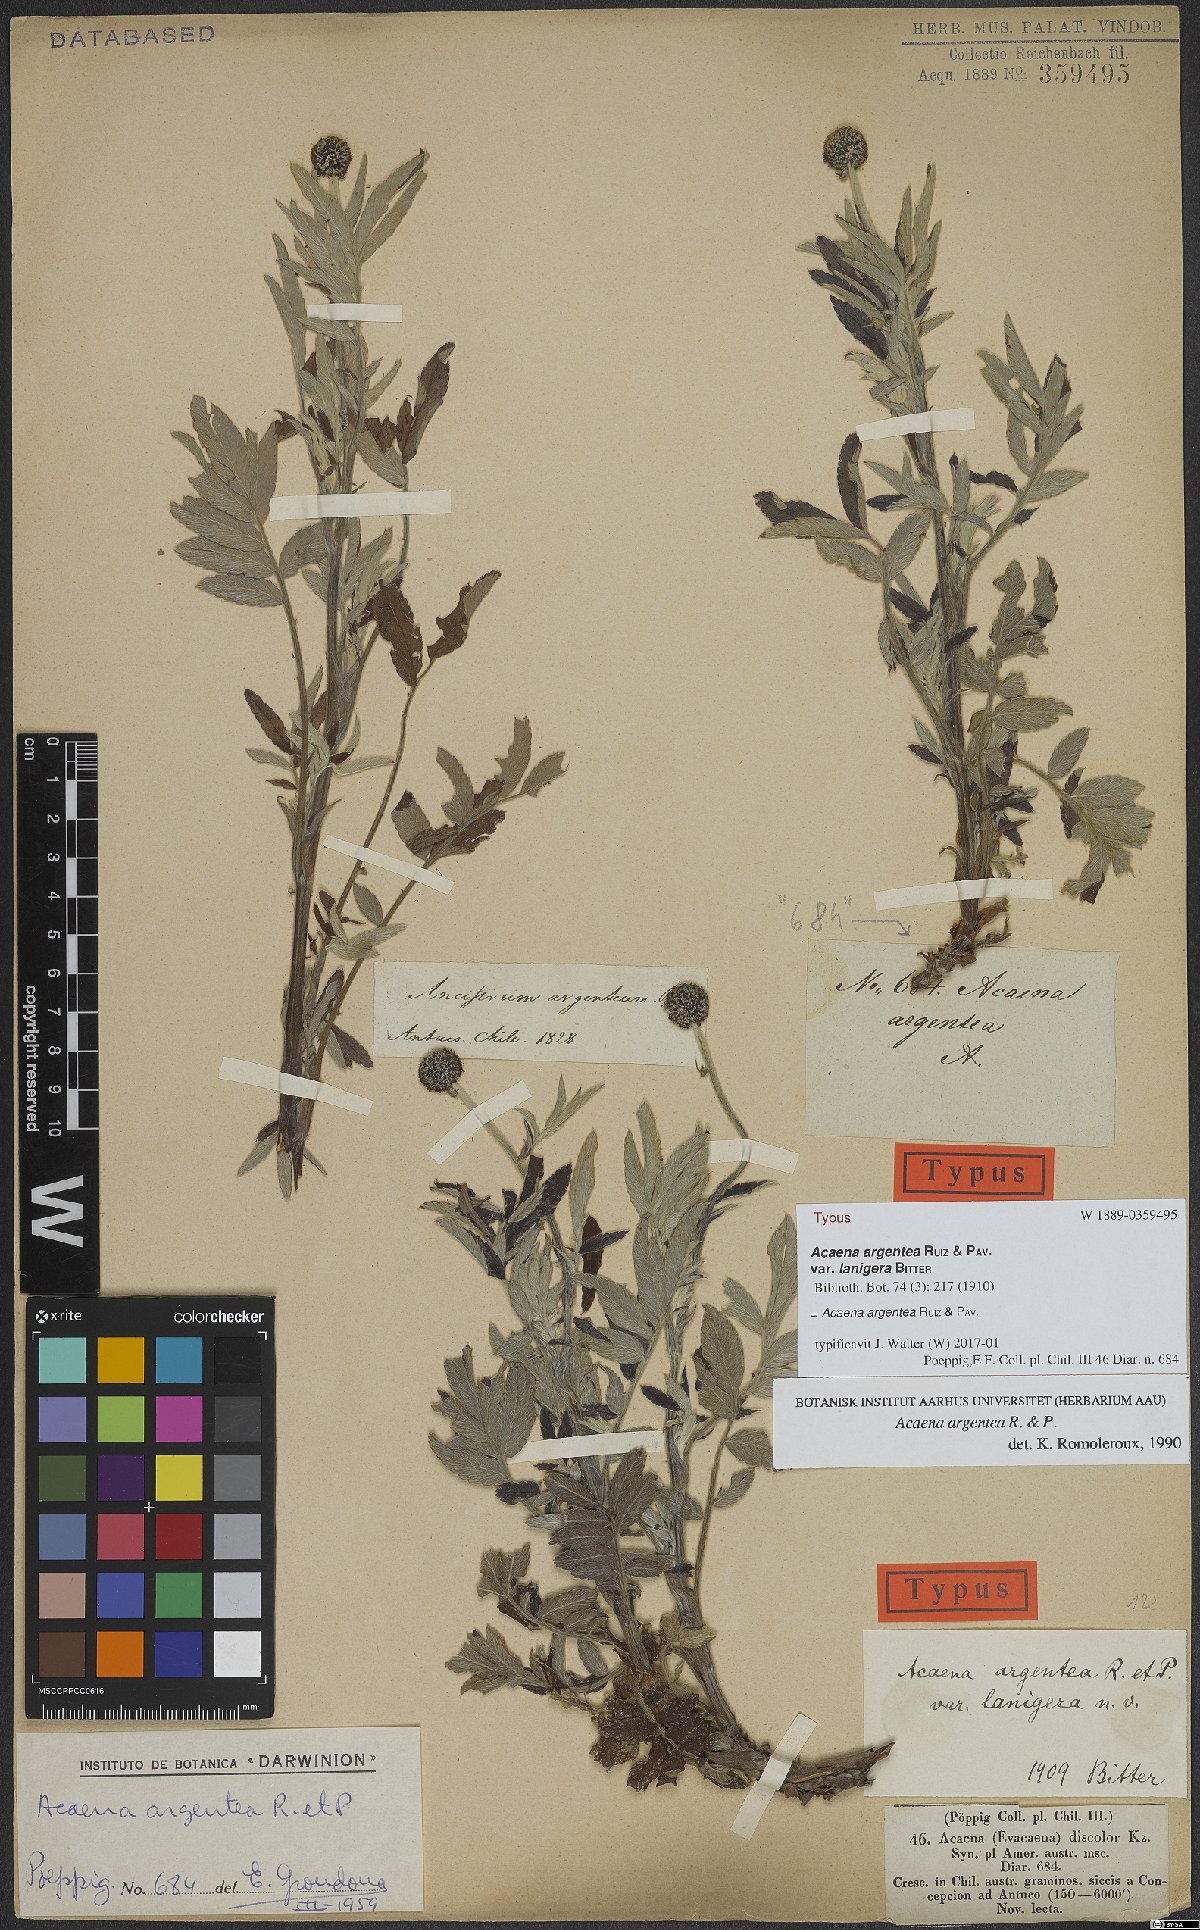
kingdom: Plantae
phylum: Tracheophyta
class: Magnoliopsida
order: Rosales
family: Rosaceae
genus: Acaena
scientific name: Acaena argentea
